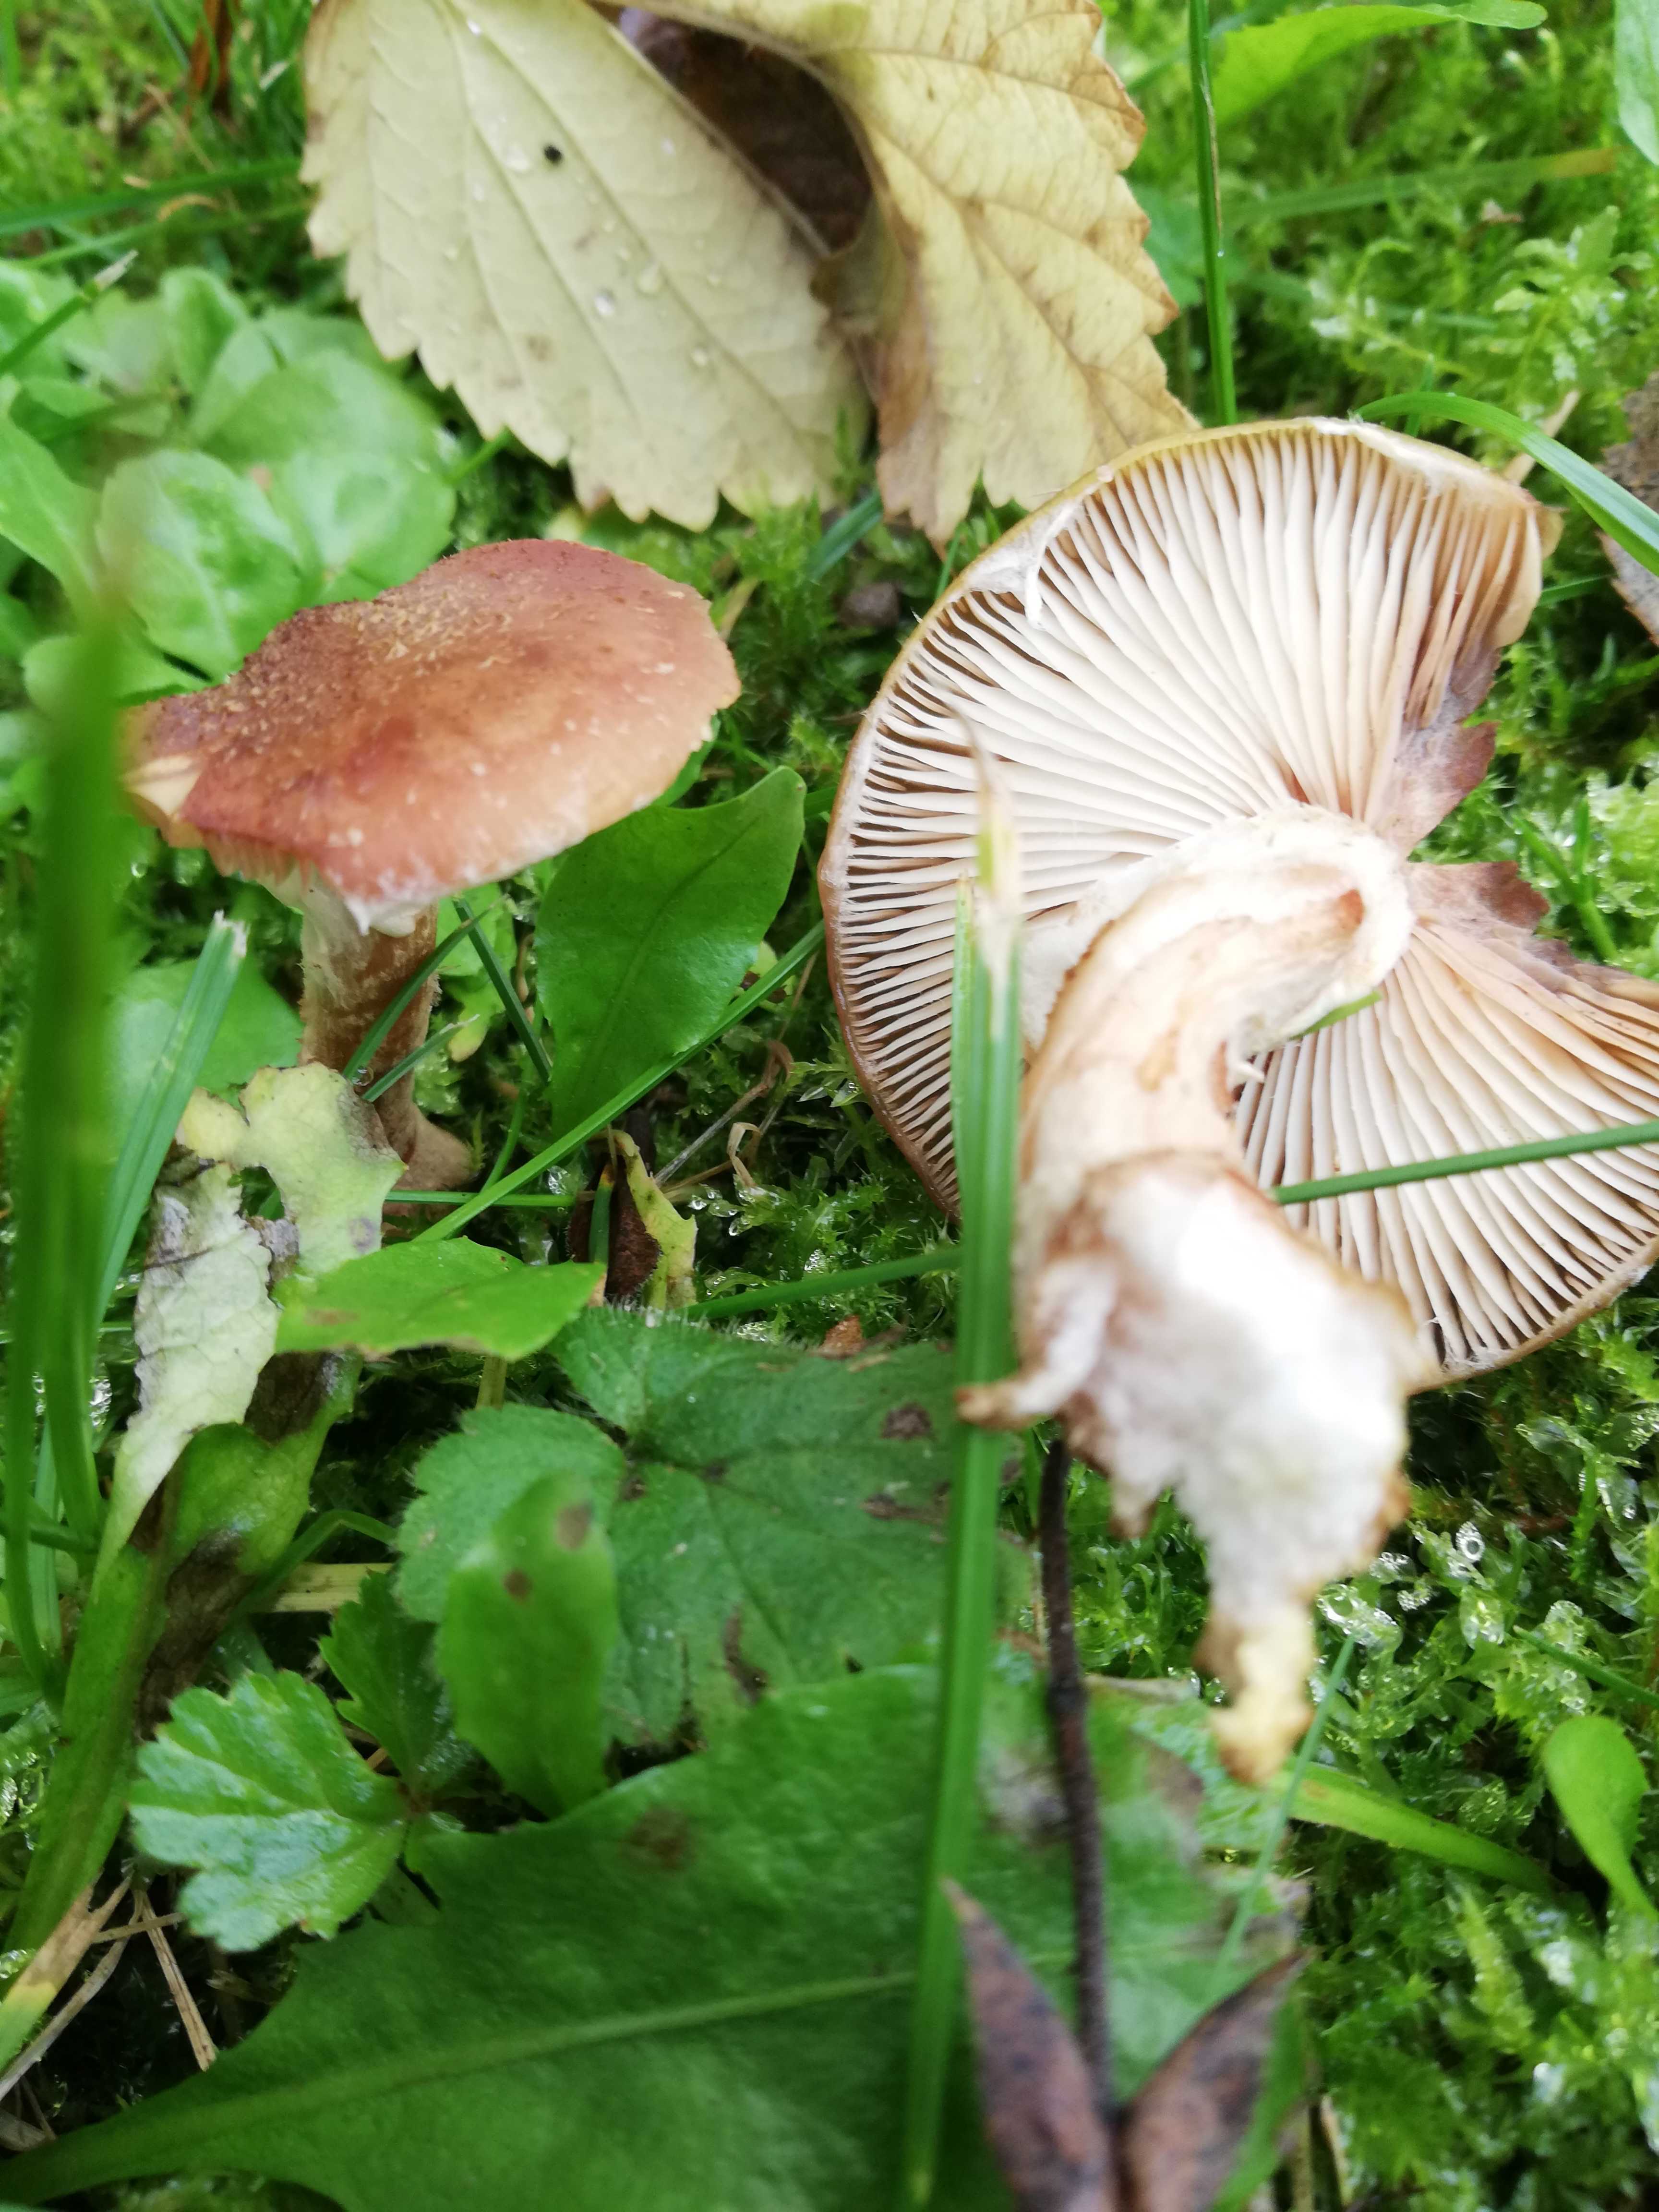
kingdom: Fungi
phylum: Basidiomycota
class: Agaricomycetes
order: Agaricales
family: Physalacriaceae
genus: Armillaria
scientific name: Armillaria
